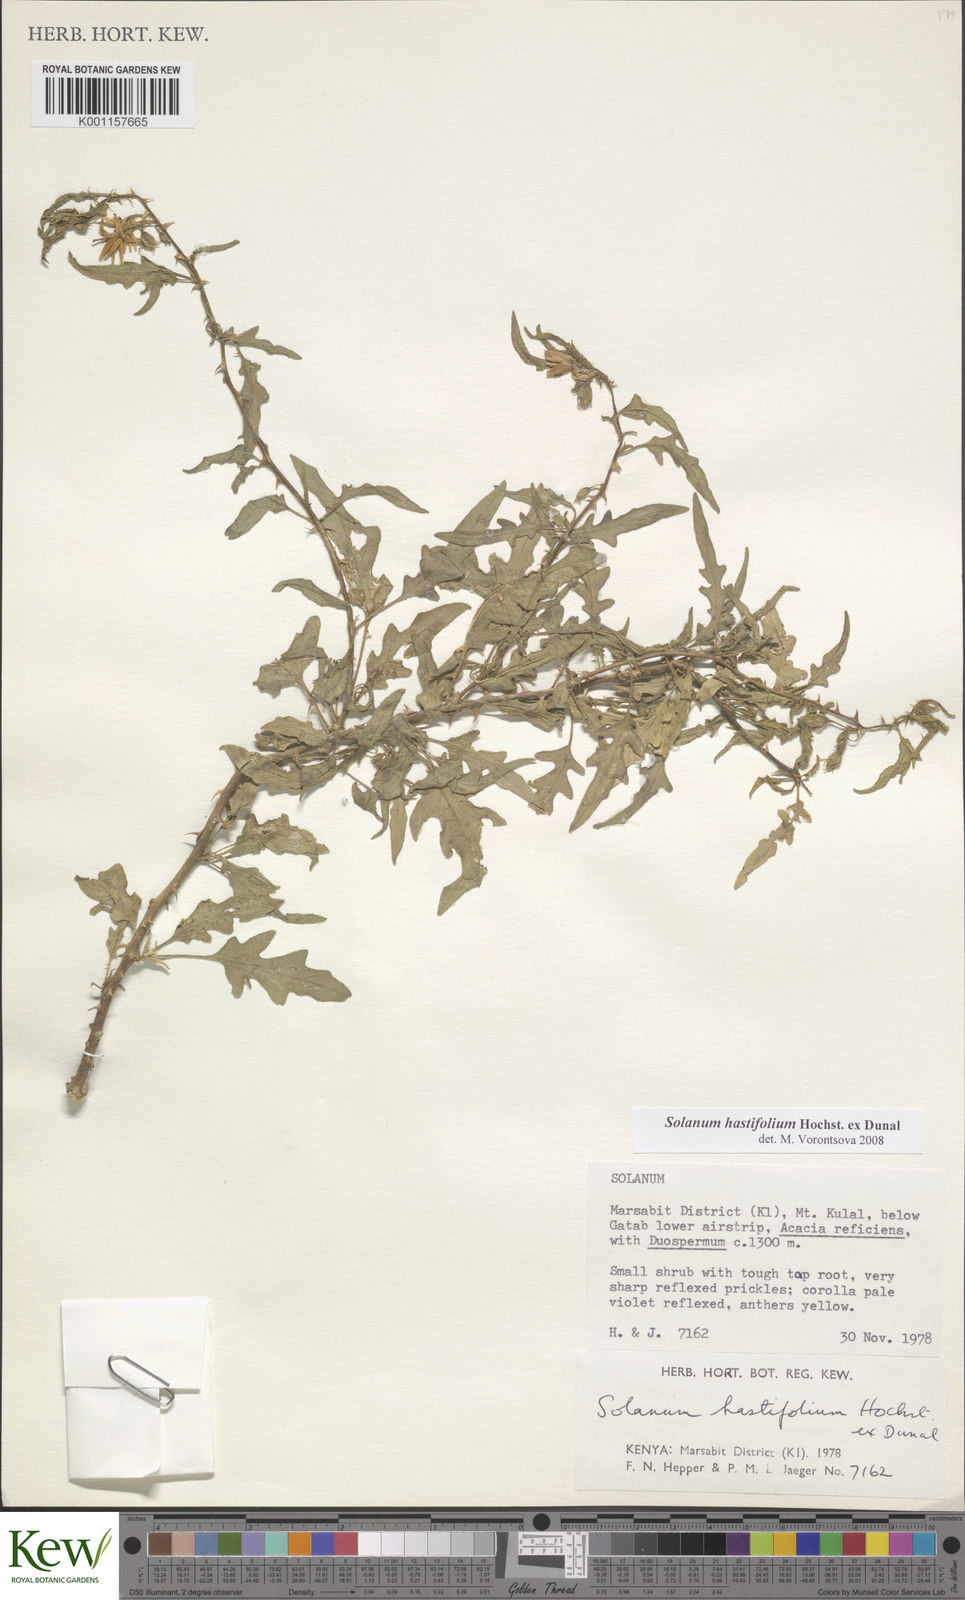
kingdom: Plantae
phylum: Tracheophyta
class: Magnoliopsida
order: Solanales
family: Solanaceae
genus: Solanum
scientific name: Solanum hastifolium
